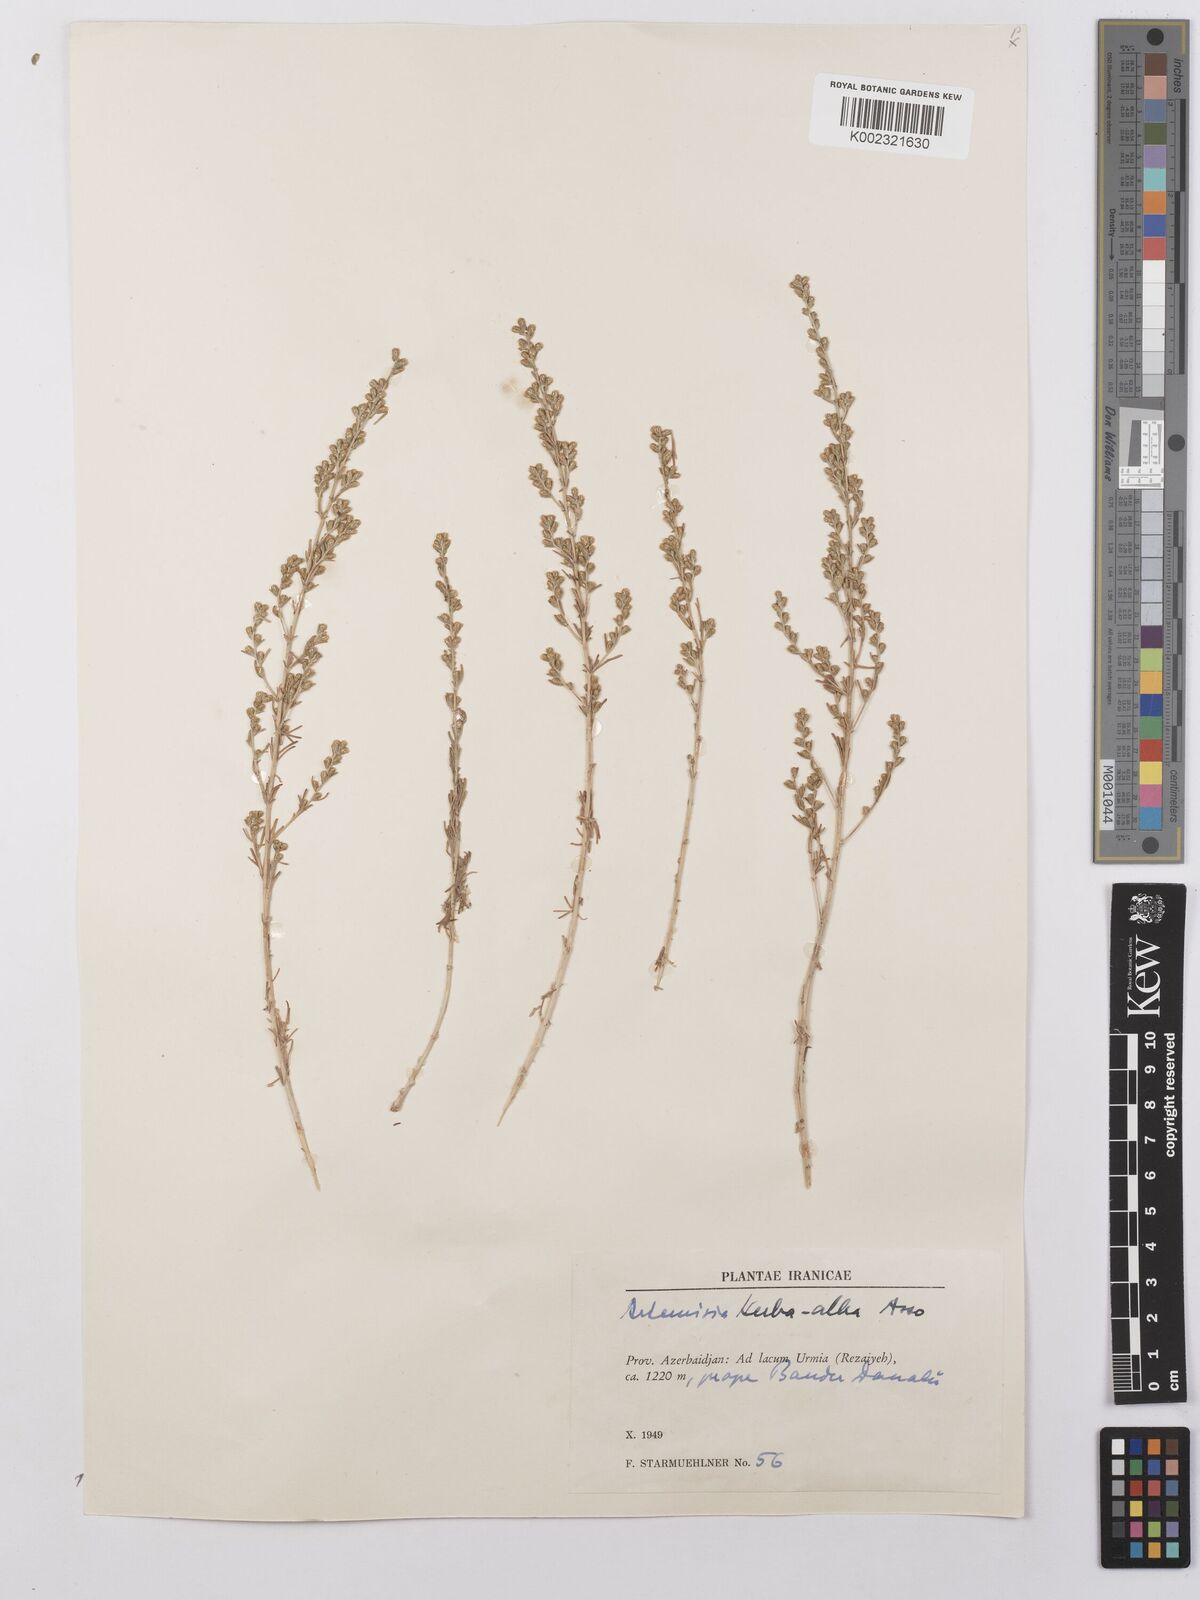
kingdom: Plantae
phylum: Tracheophyta
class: Magnoliopsida
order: Asterales
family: Asteraceae
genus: Artemisia
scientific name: Artemisia herba-alba
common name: White wormwood
